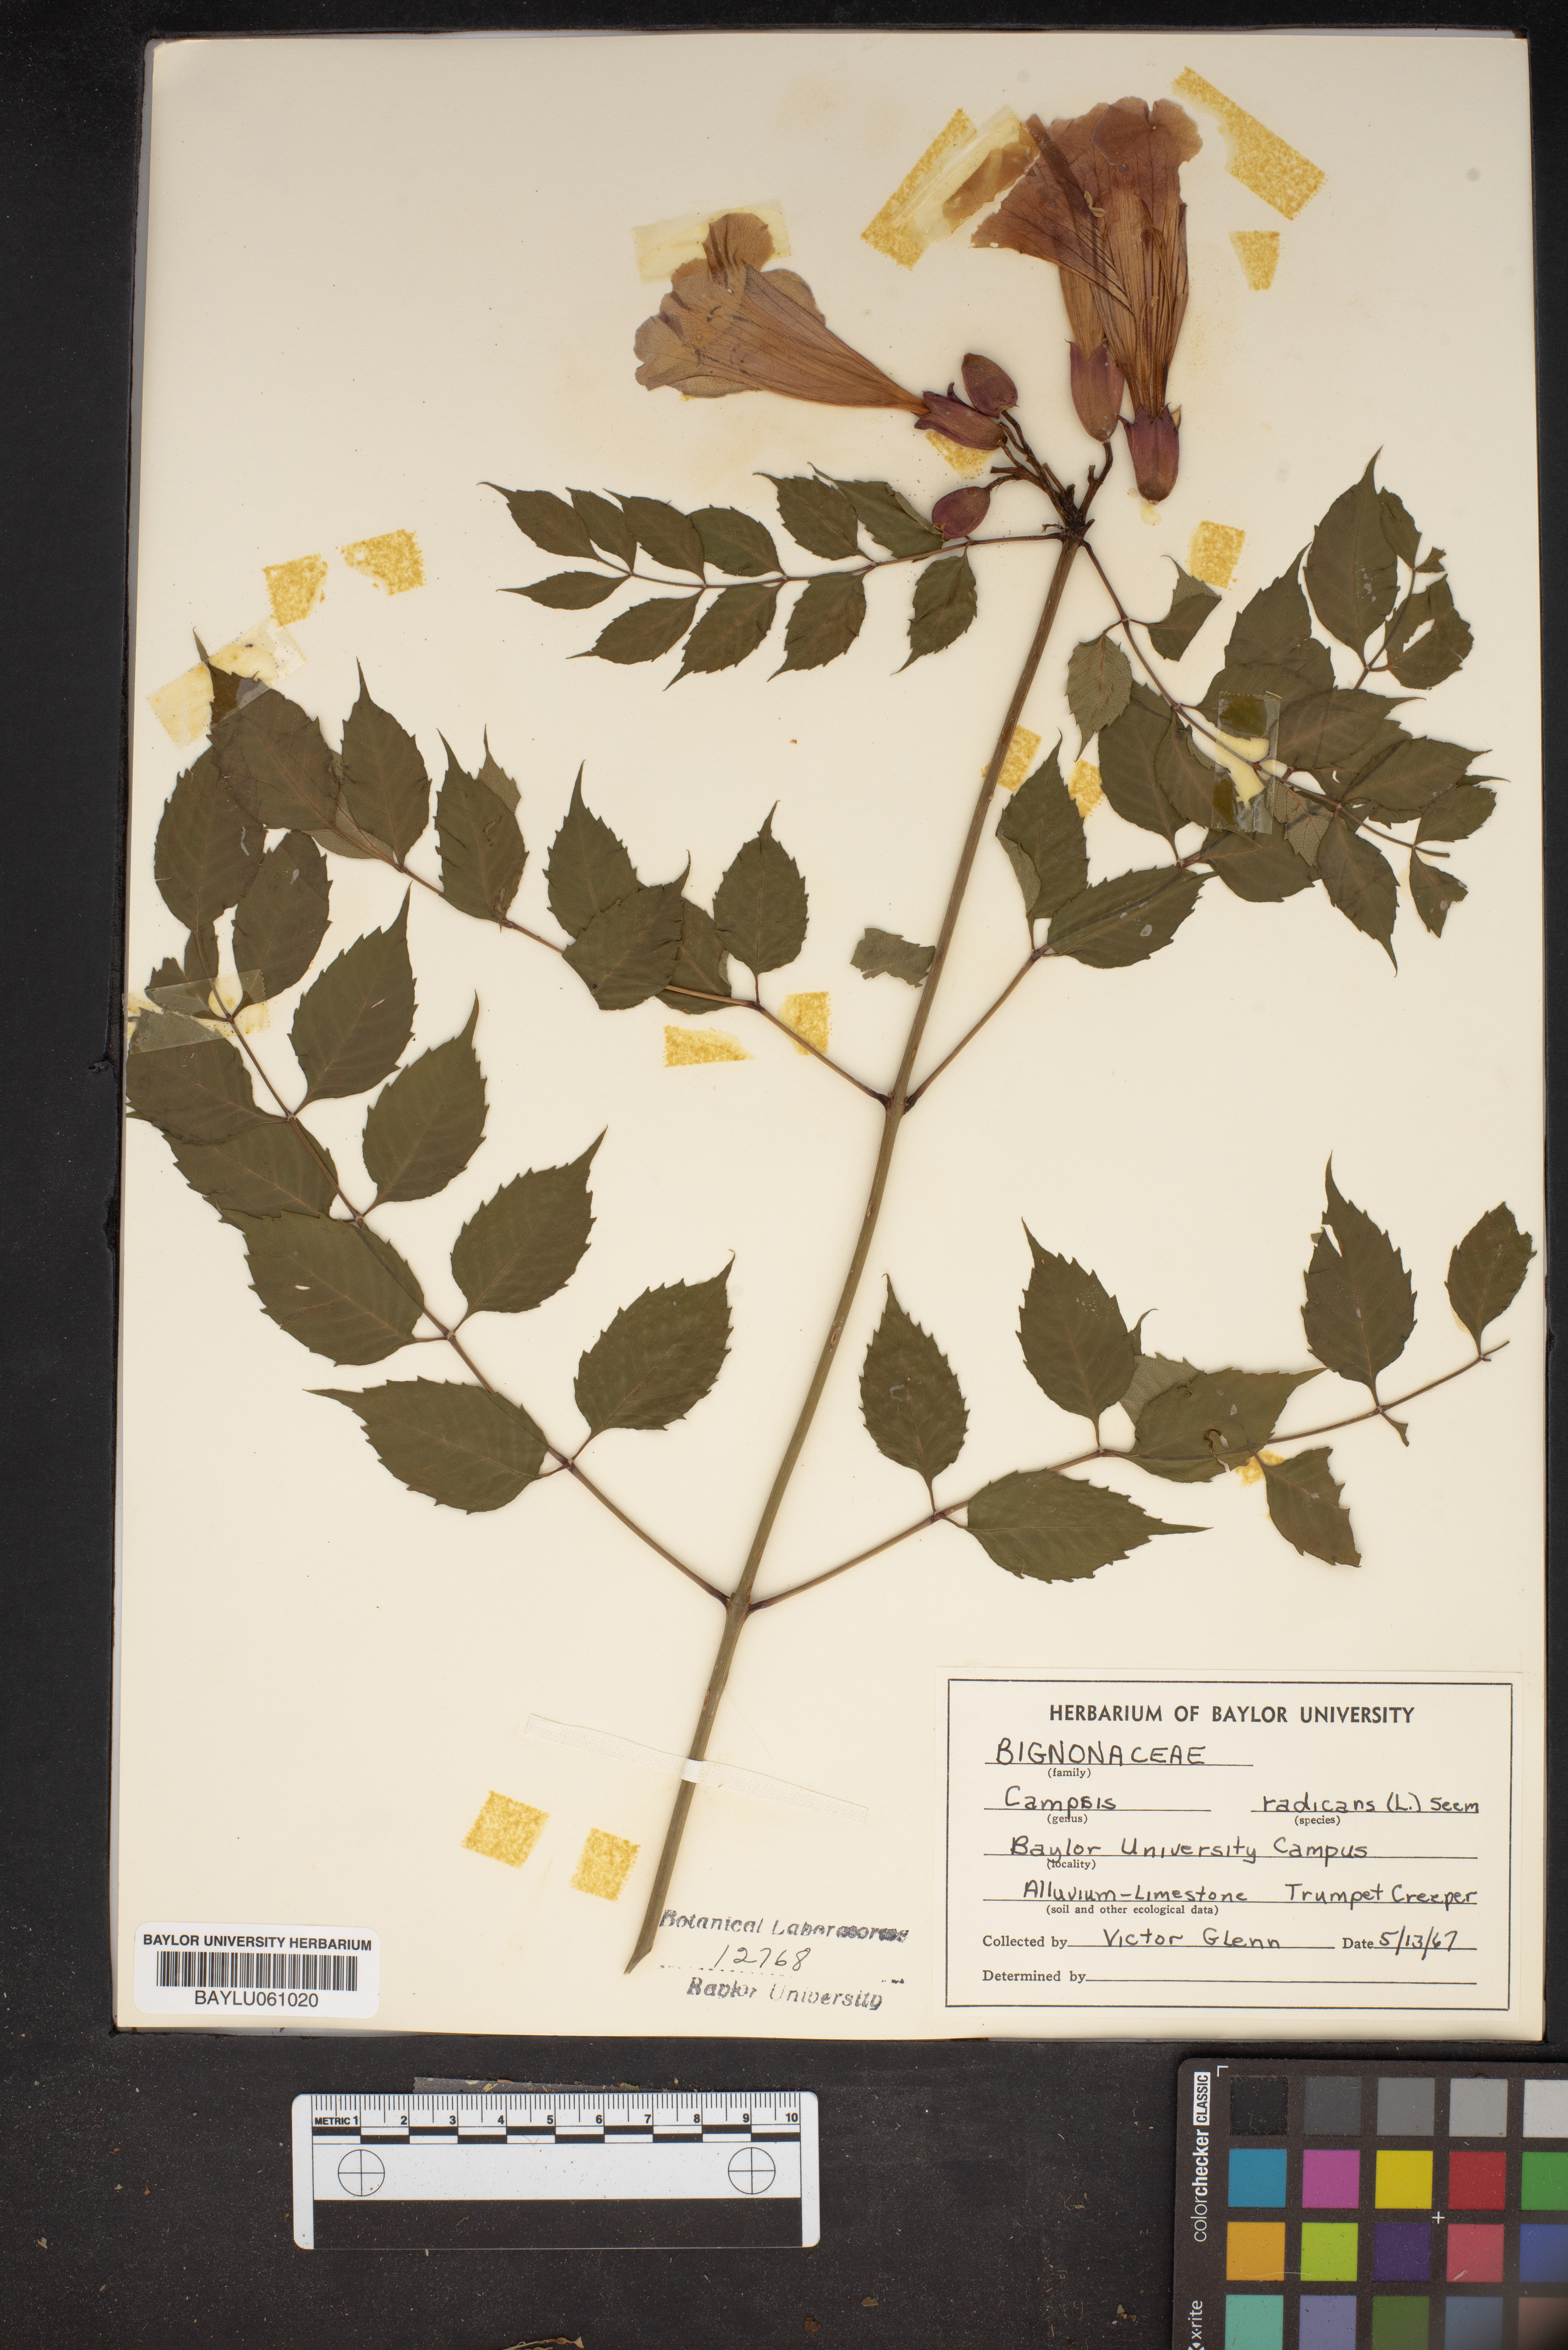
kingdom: Plantae
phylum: Tracheophyta
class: Magnoliopsida
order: Lamiales
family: Bignoniaceae
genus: Campsis
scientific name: Campsis radicans
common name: Trumpet-creeper
